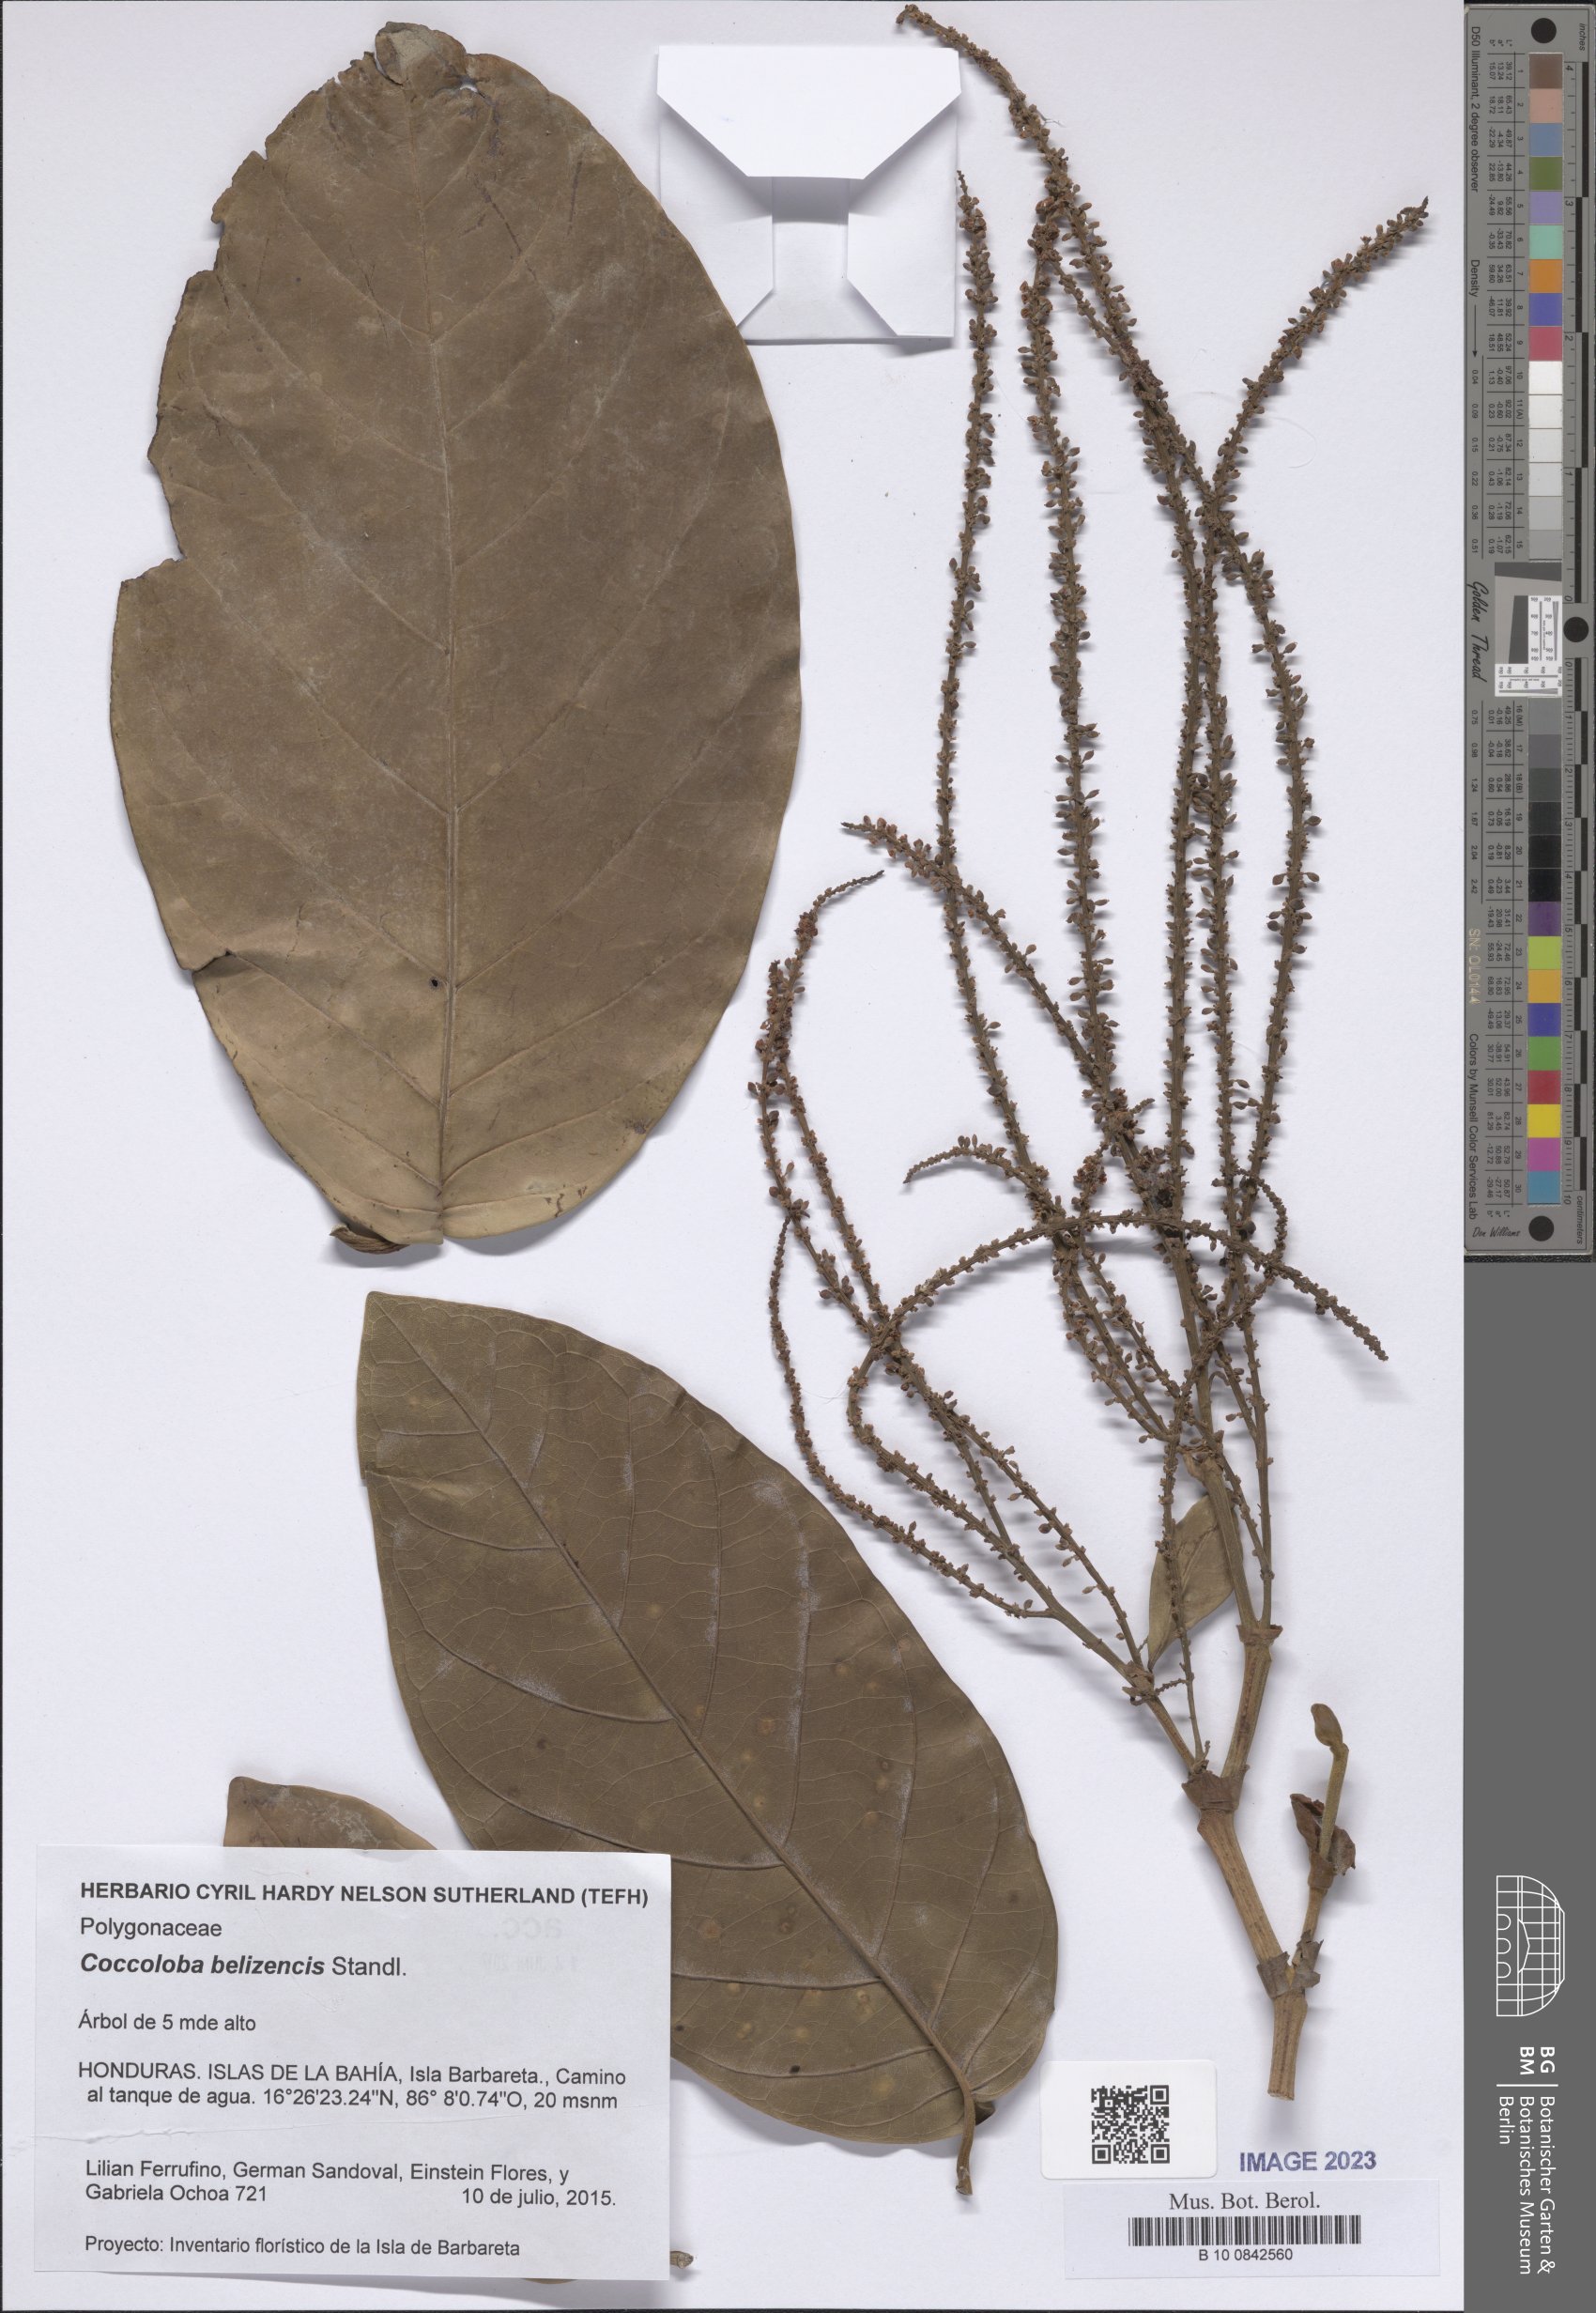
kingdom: Plantae
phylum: Tracheophyta
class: Magnoliopsida
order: Caryophyllales
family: Polygonaceae
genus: Coccoloba
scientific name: Coccoloba belizensis
